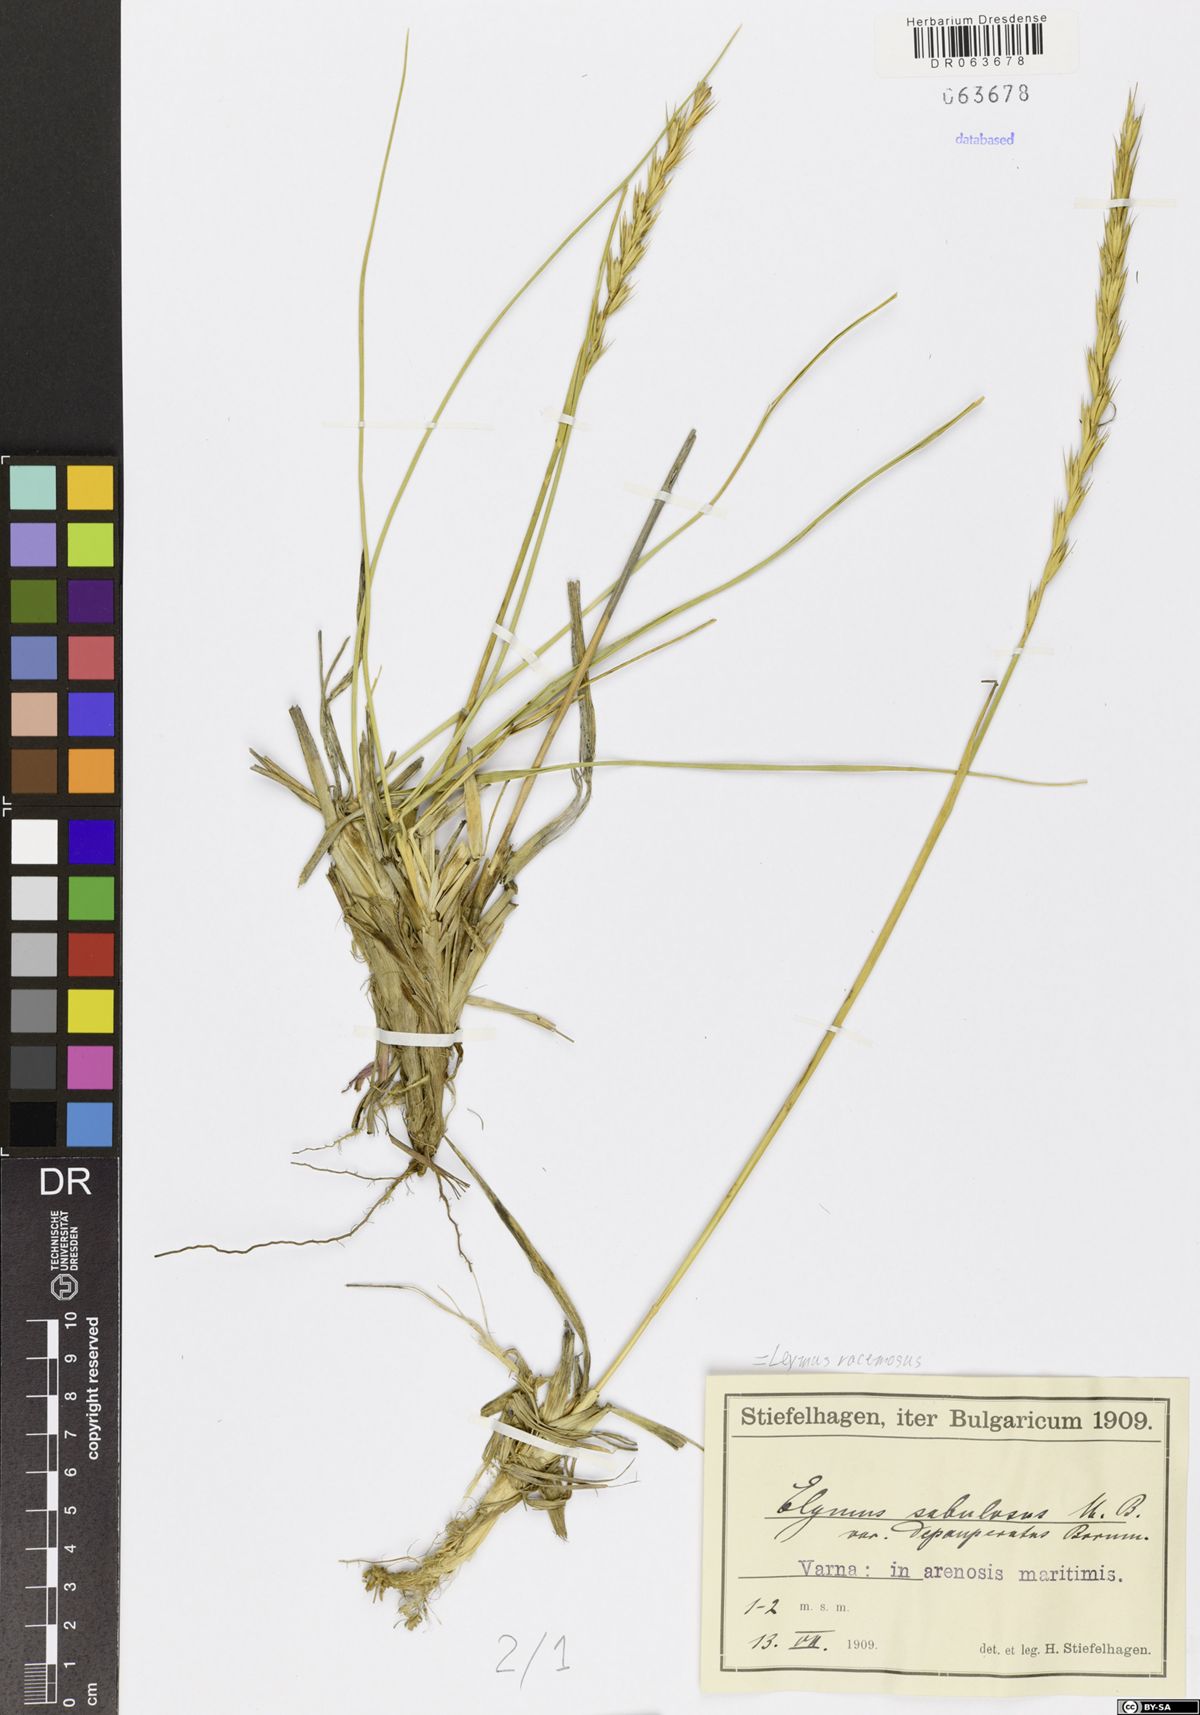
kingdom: Plantae
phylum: Tracheophyta
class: Liliopsida
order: Poales
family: Poaceae
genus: Leymus
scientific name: Leymus racemosus
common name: Mammoth wildrye
